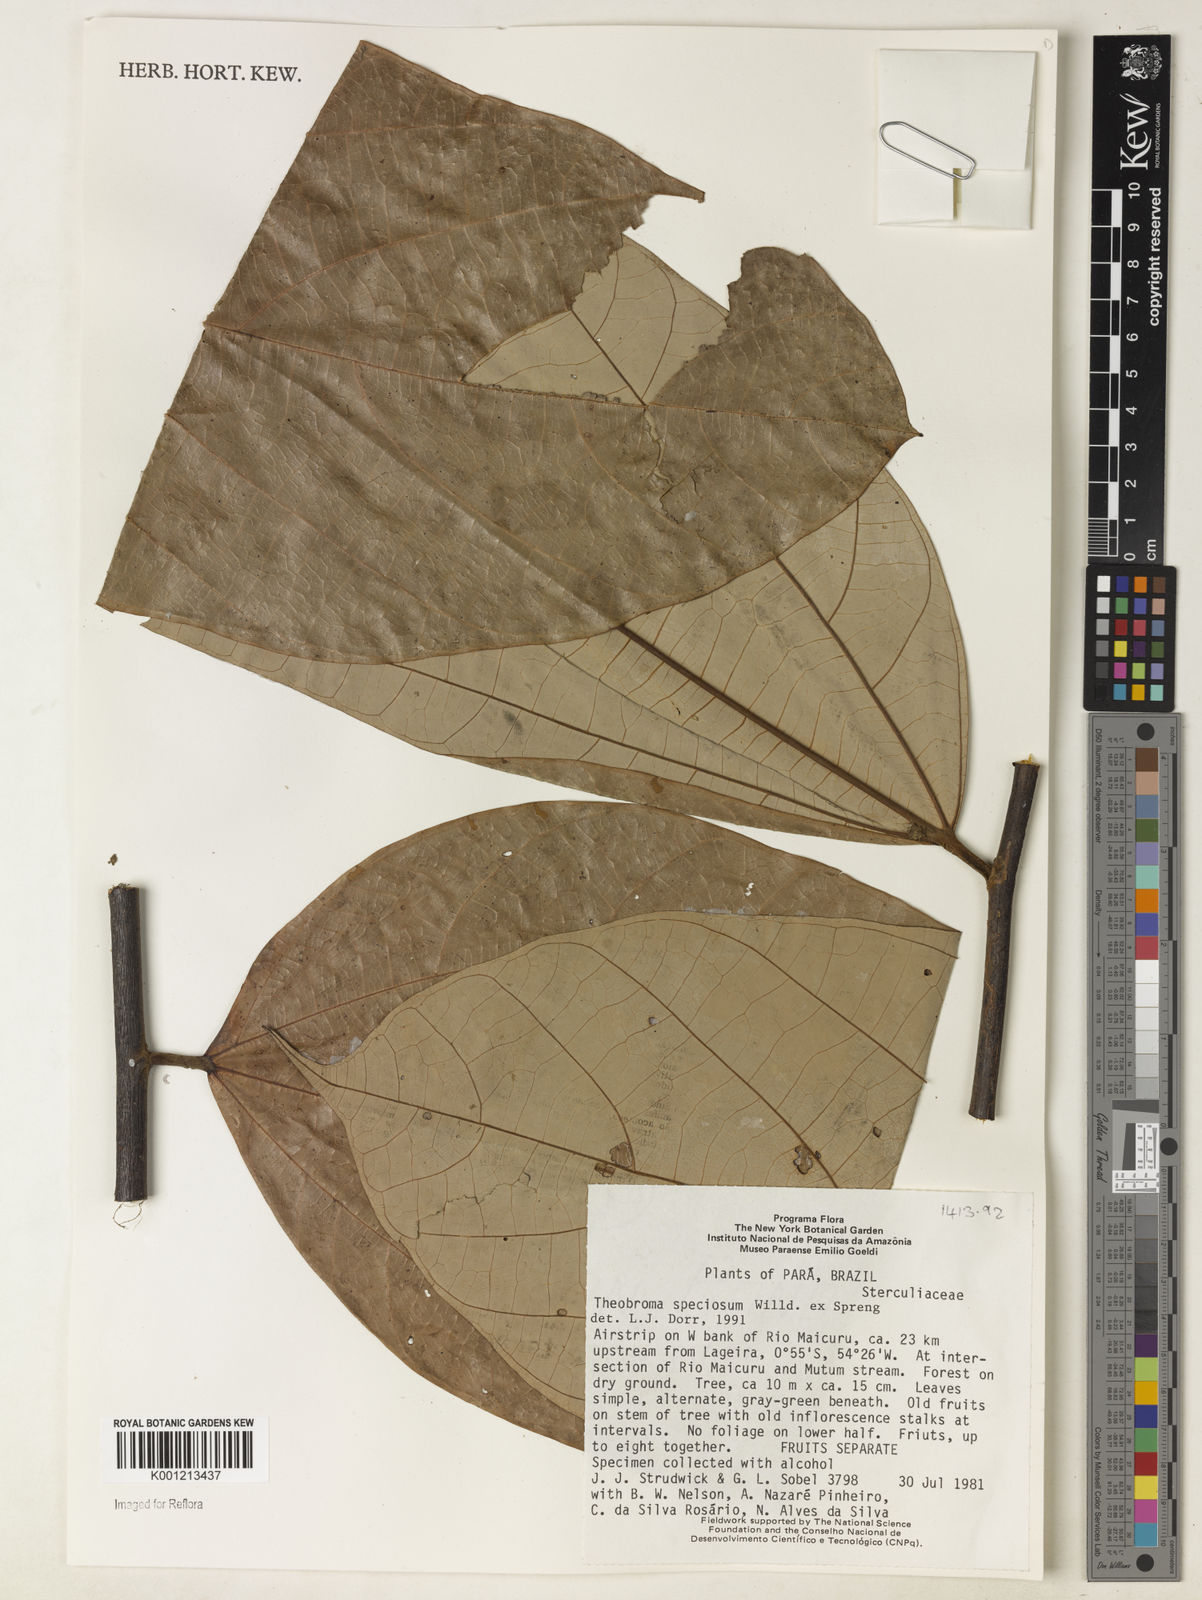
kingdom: Plantae
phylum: Tracheophyta
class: Magnoliopsida
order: Malvales
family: Malvaceae
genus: Theobroma
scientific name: Theobroma speciosum
